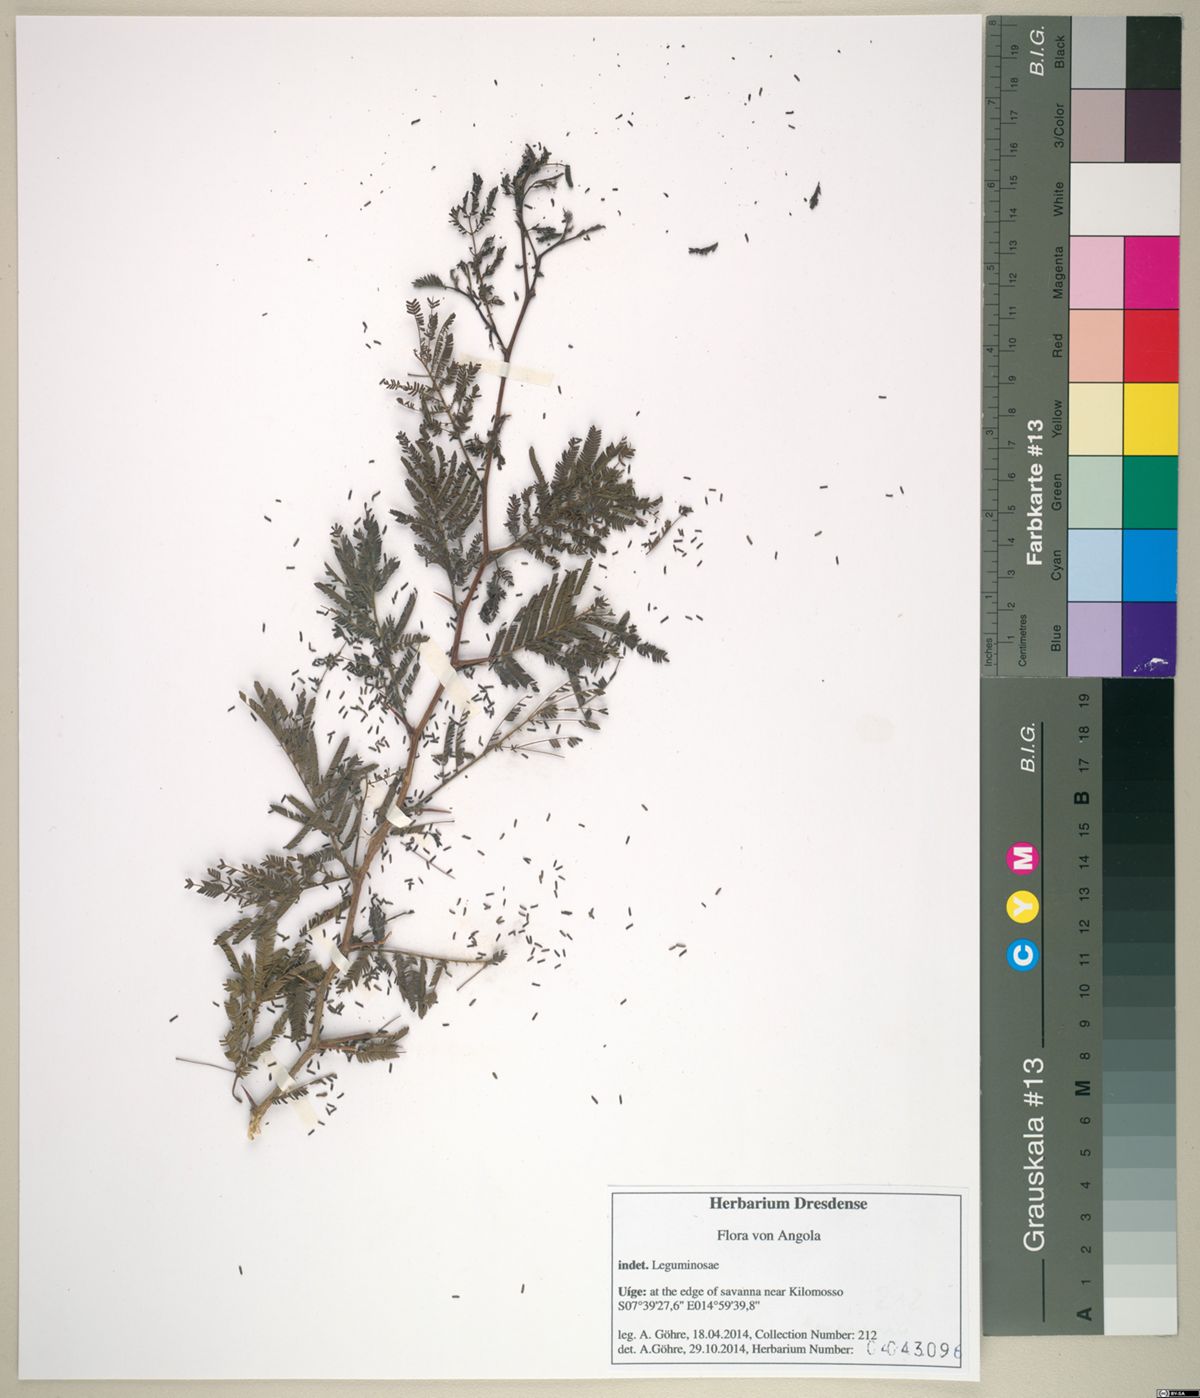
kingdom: Plantae
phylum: Tracheophyta
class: Magnoliopsida
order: Fabales
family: Fabaceae
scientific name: Fabaceae
